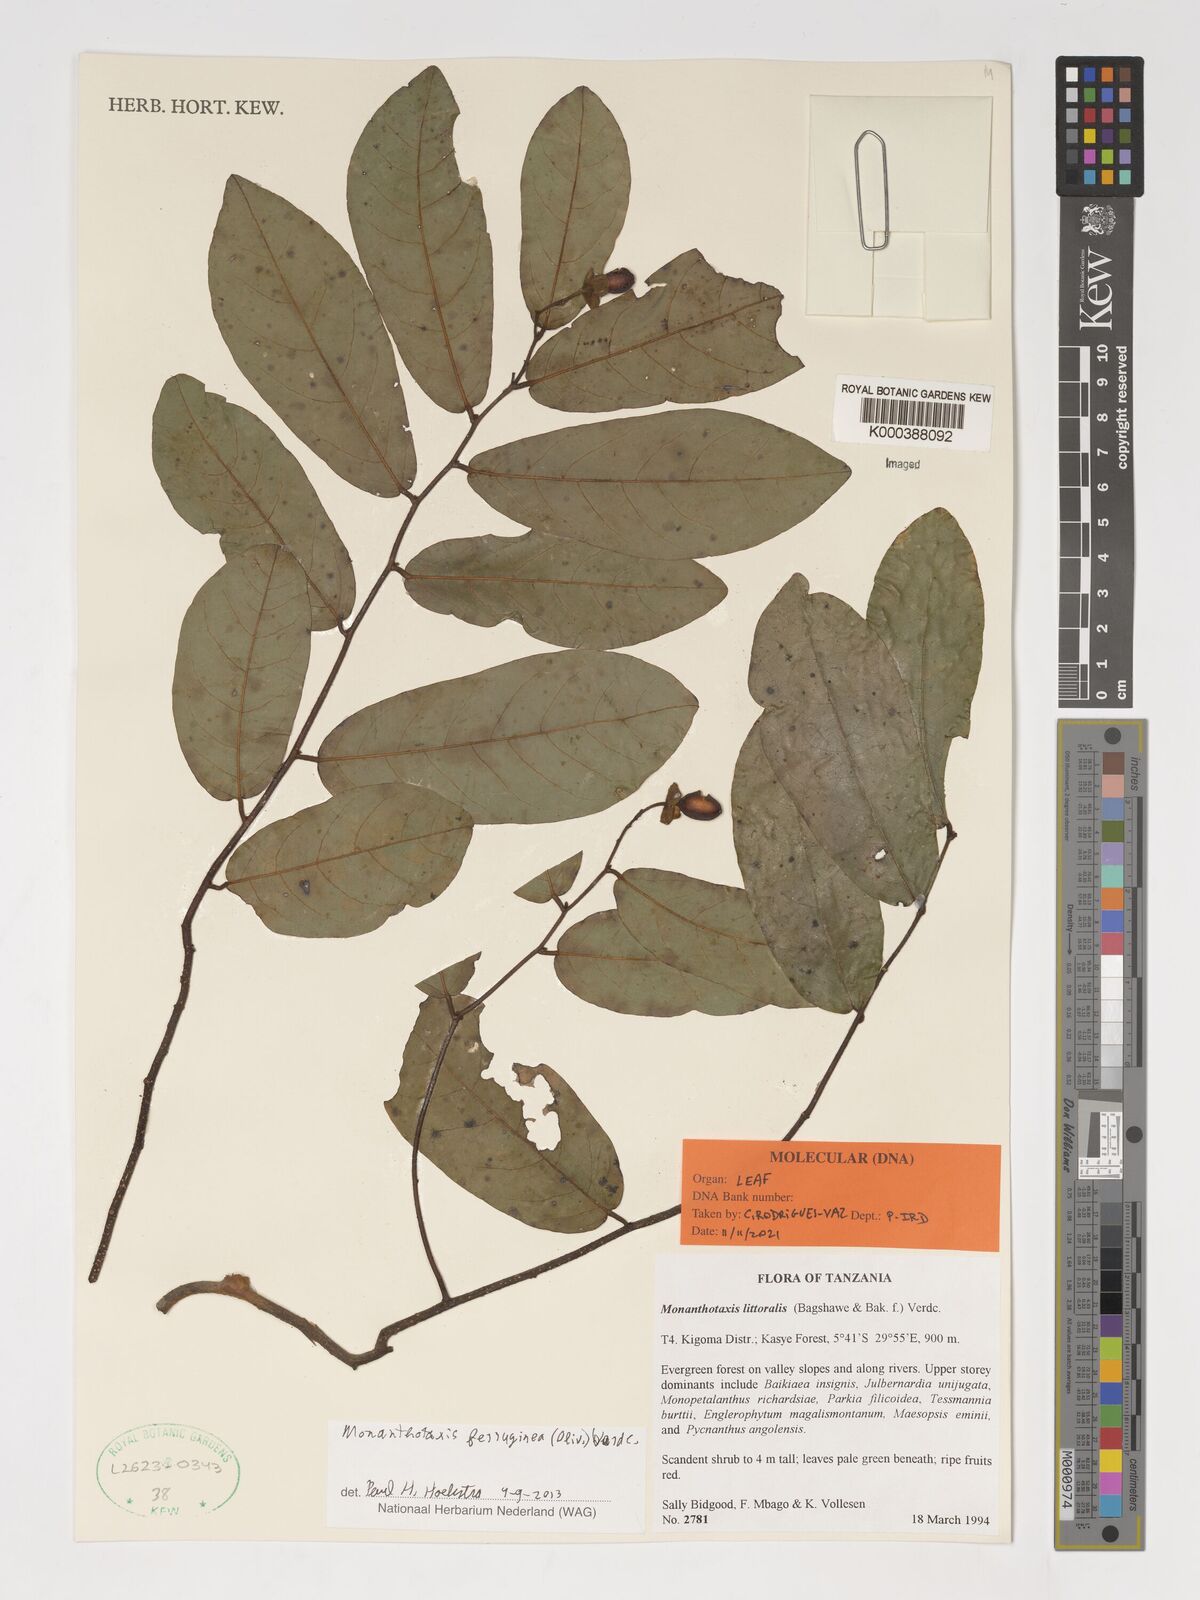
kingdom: Plantae
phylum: Tracheophyta
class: Magnoliopsida
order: Magnoliales
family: Annonaceae
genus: Monanthotaxis
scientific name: Monanthotaxis ferruginea
